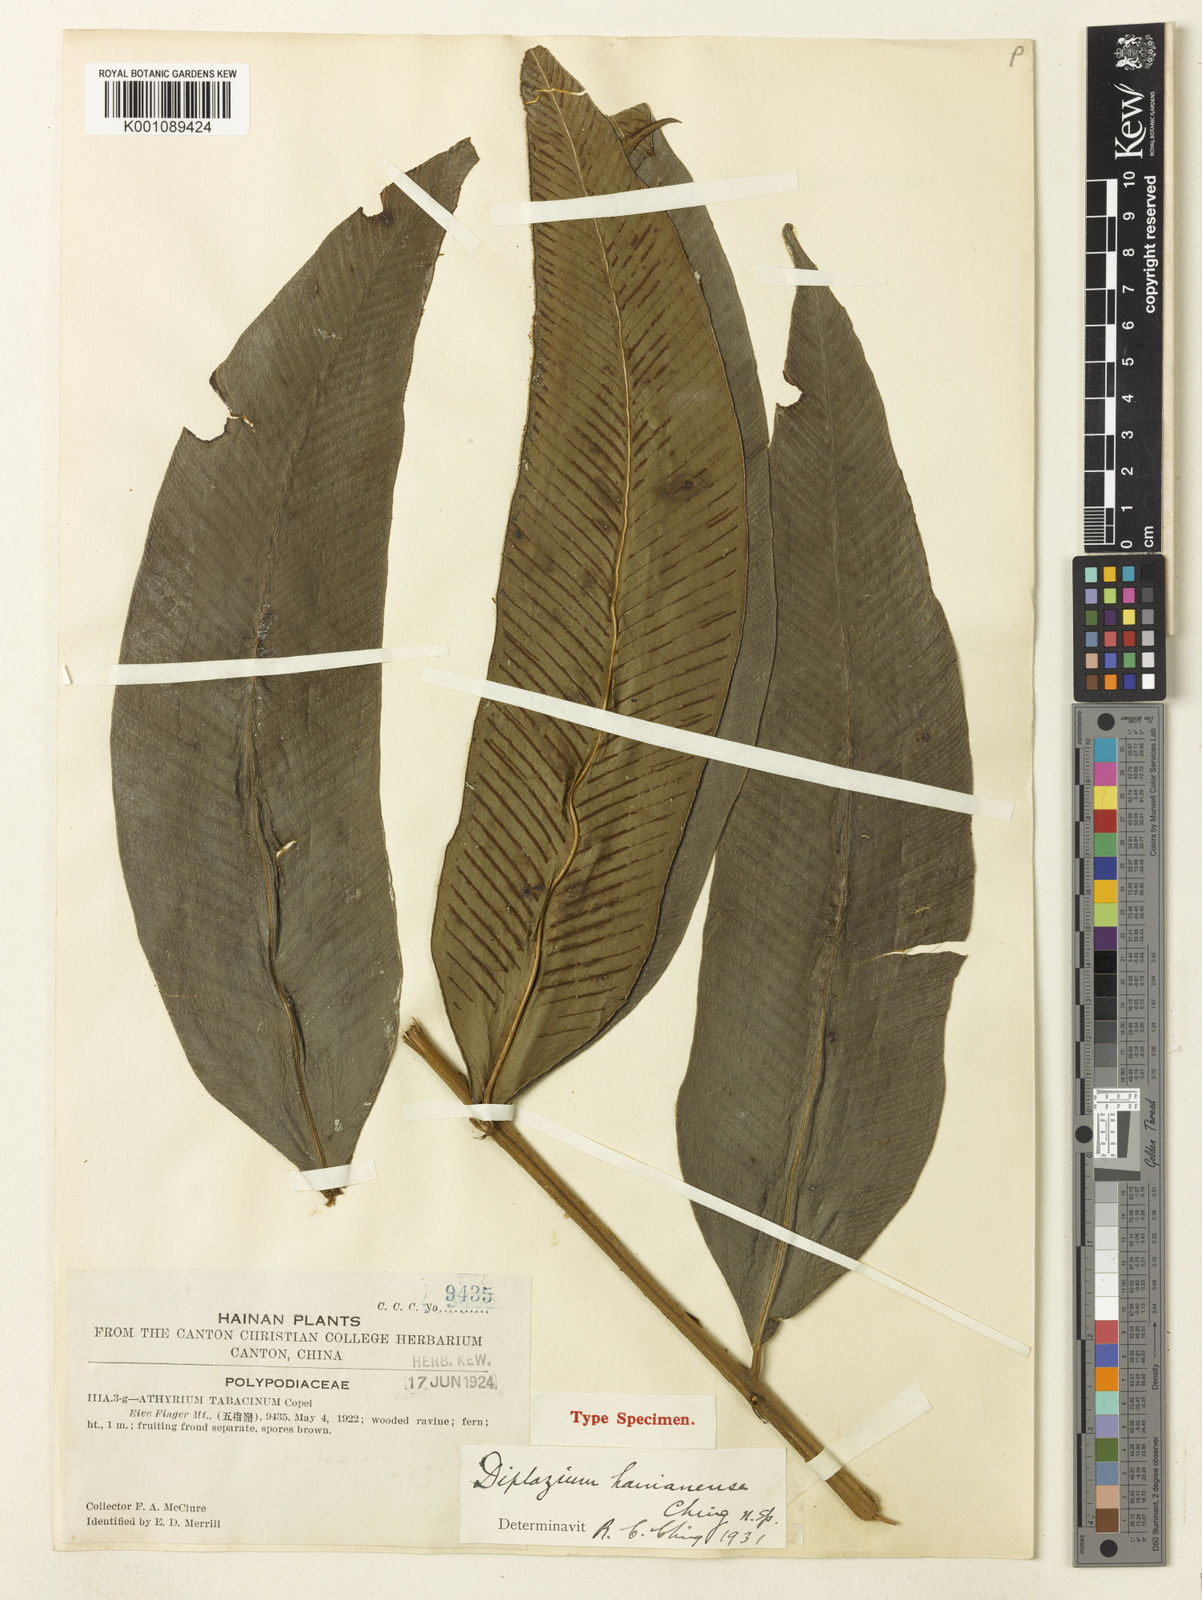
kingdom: Plantae
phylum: Tracheophyta
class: Polypodiopsida
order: Polypodiales
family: Athyriaceae
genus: Diplazium
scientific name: Diplazium hainanense
